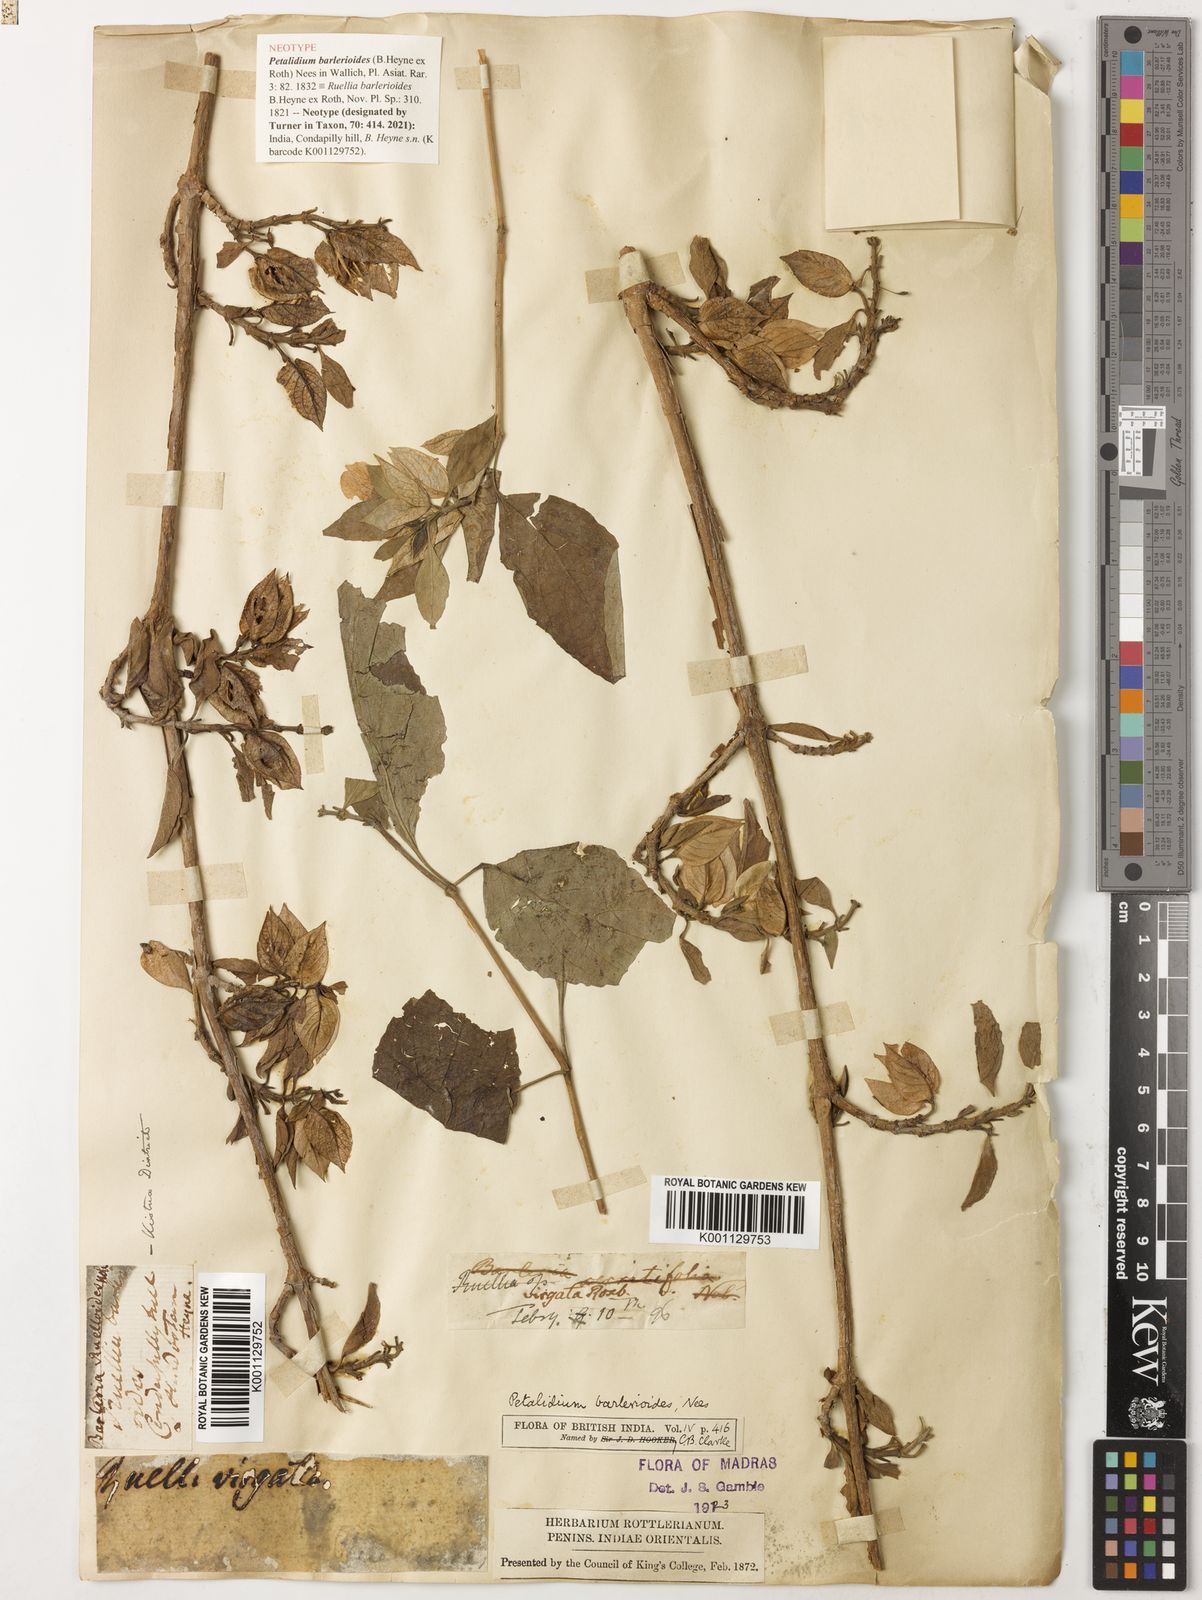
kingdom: Plantae
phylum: Tracheophyta
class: Magnoliopsida
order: Lamiales
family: Acanthaceae
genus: Petalidium
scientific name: Petalidium
